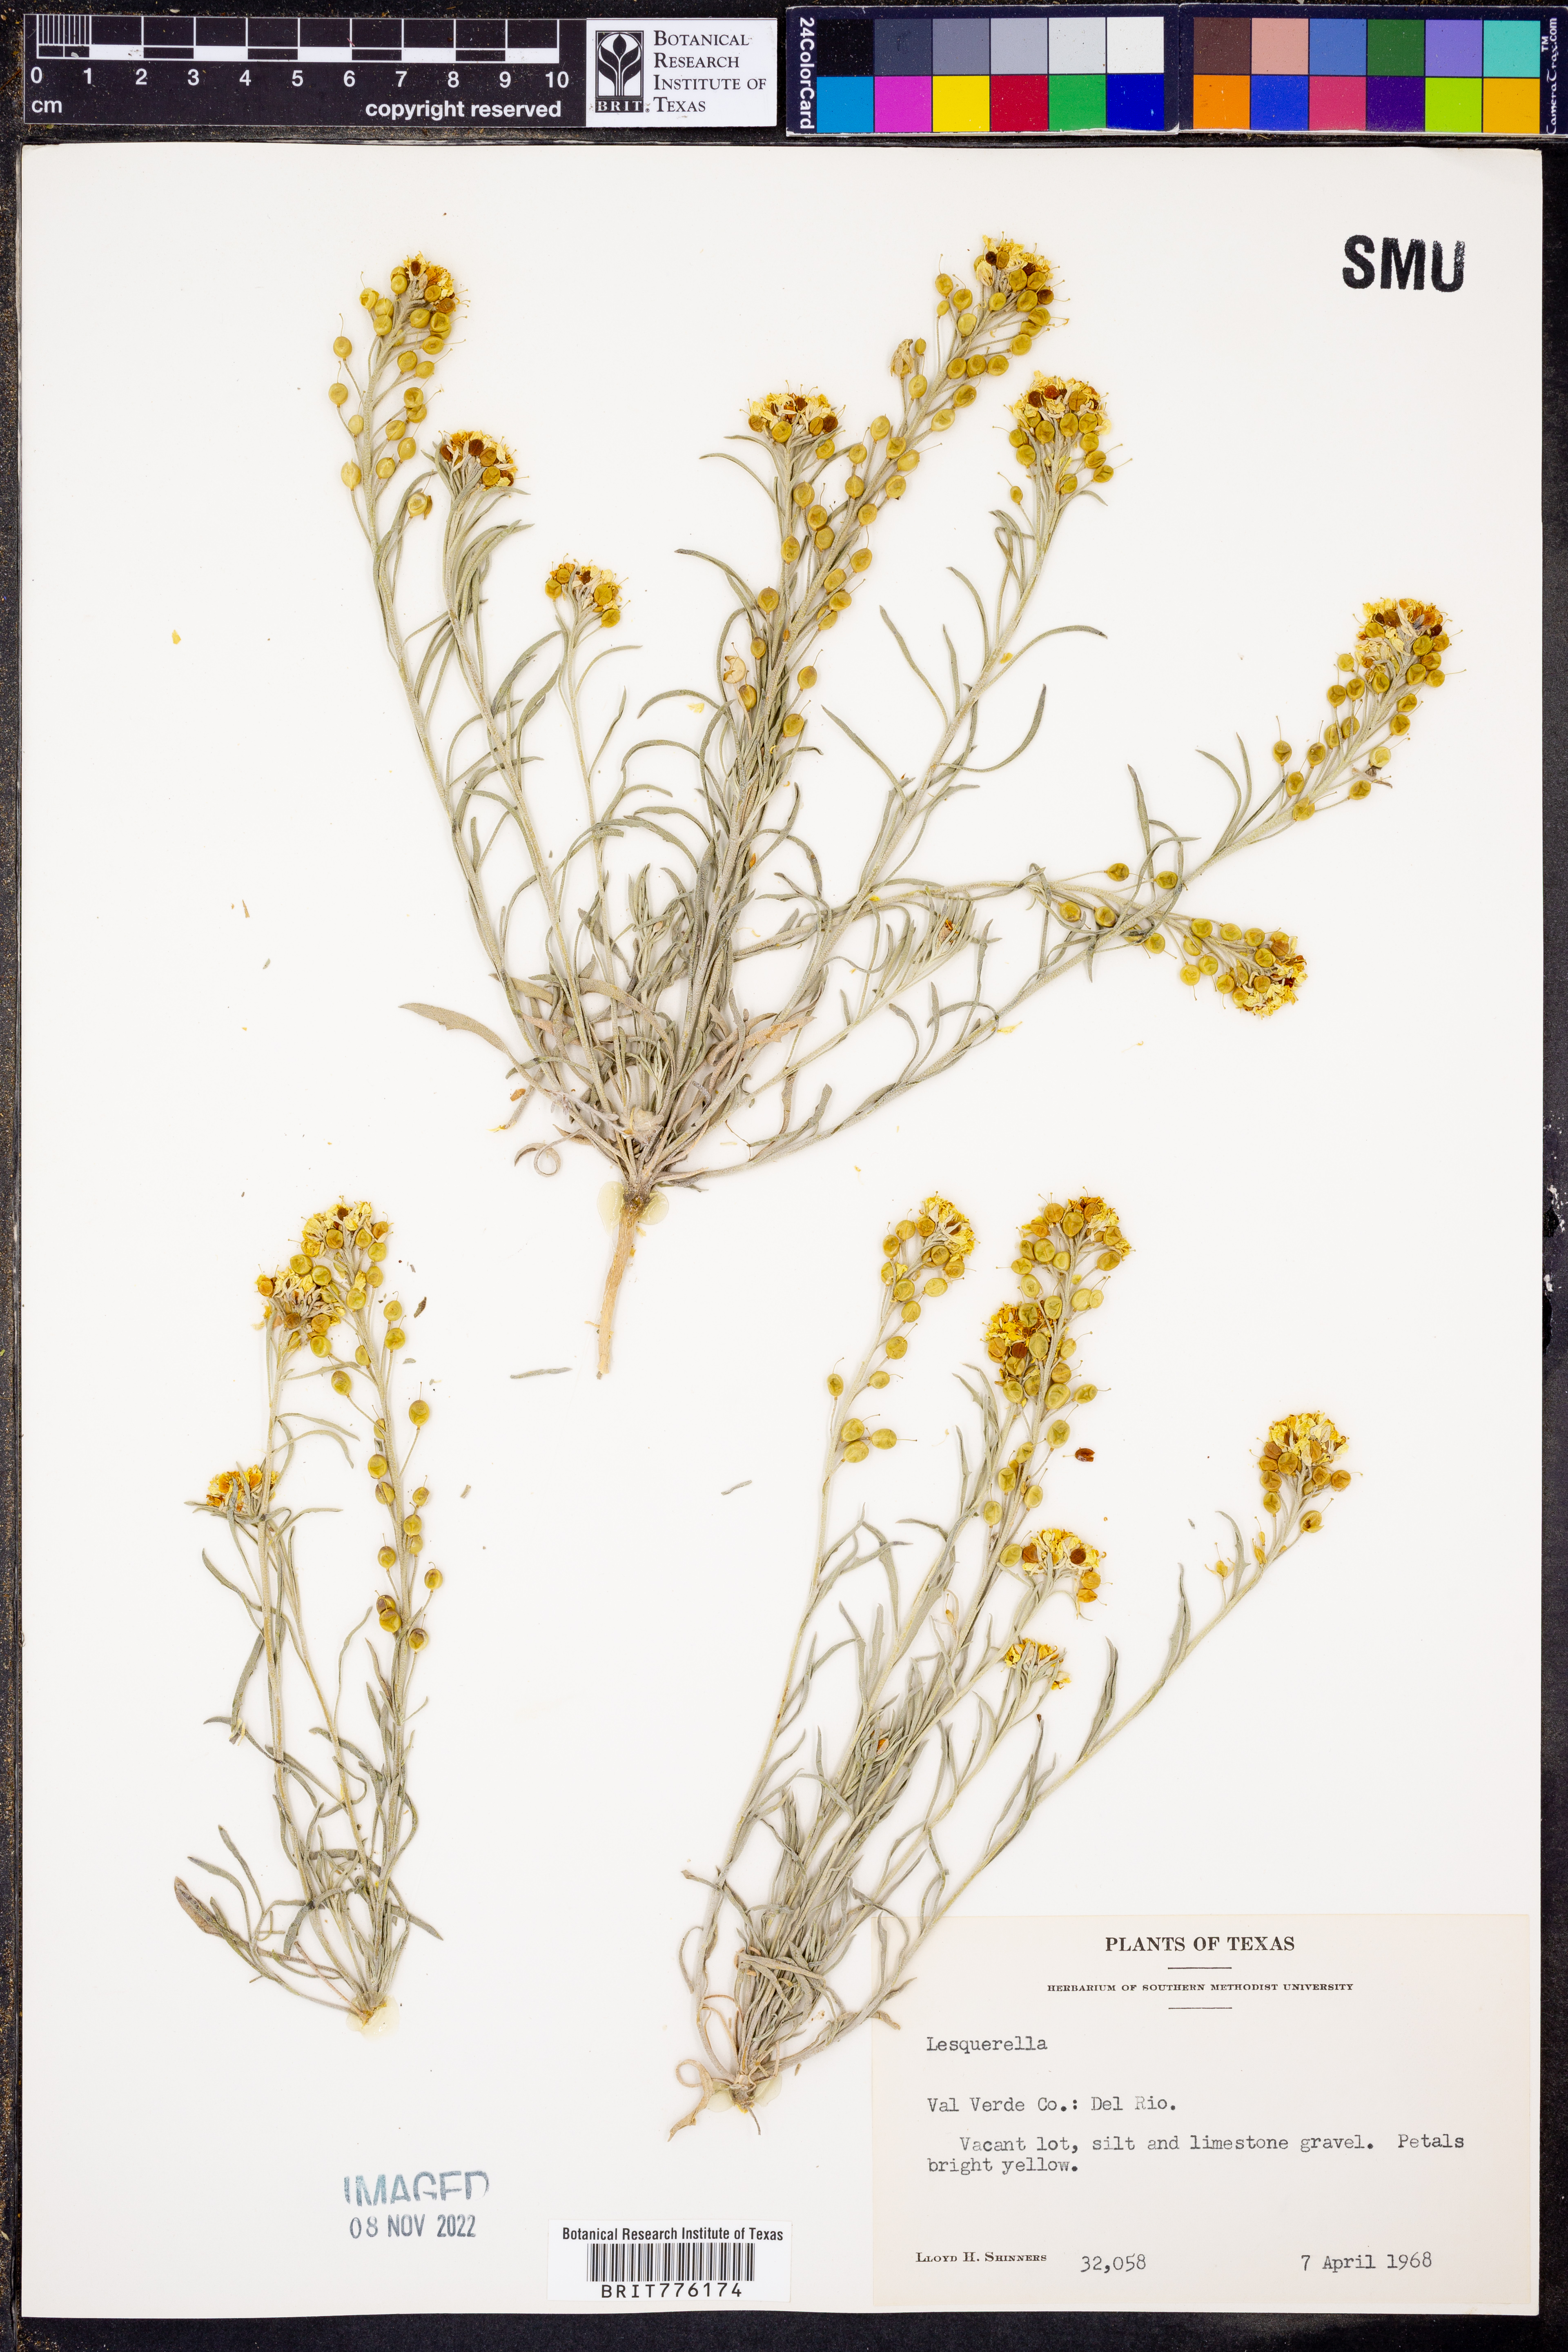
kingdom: Chromista
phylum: Cercozoa
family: Psammonobiotidae
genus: Lesquerella
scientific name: Lesquerella
